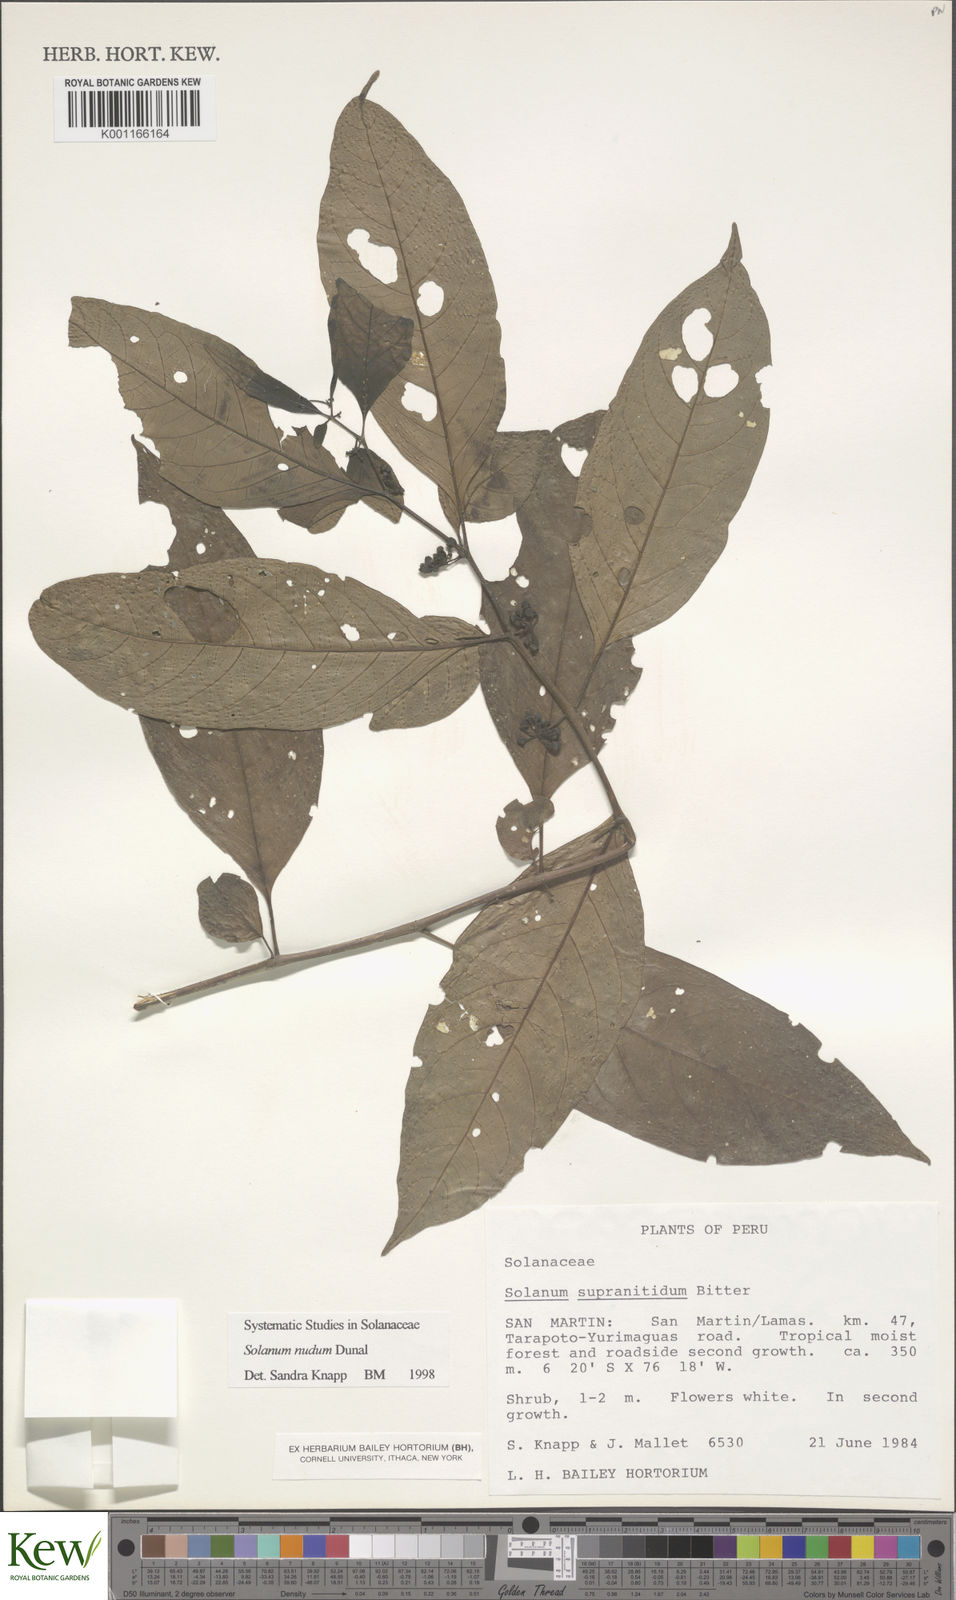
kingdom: Plantae
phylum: Tracheophyta
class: Magnoliopsida
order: Solanales
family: Solanaceae
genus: Solanum
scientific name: Solanum nudum
